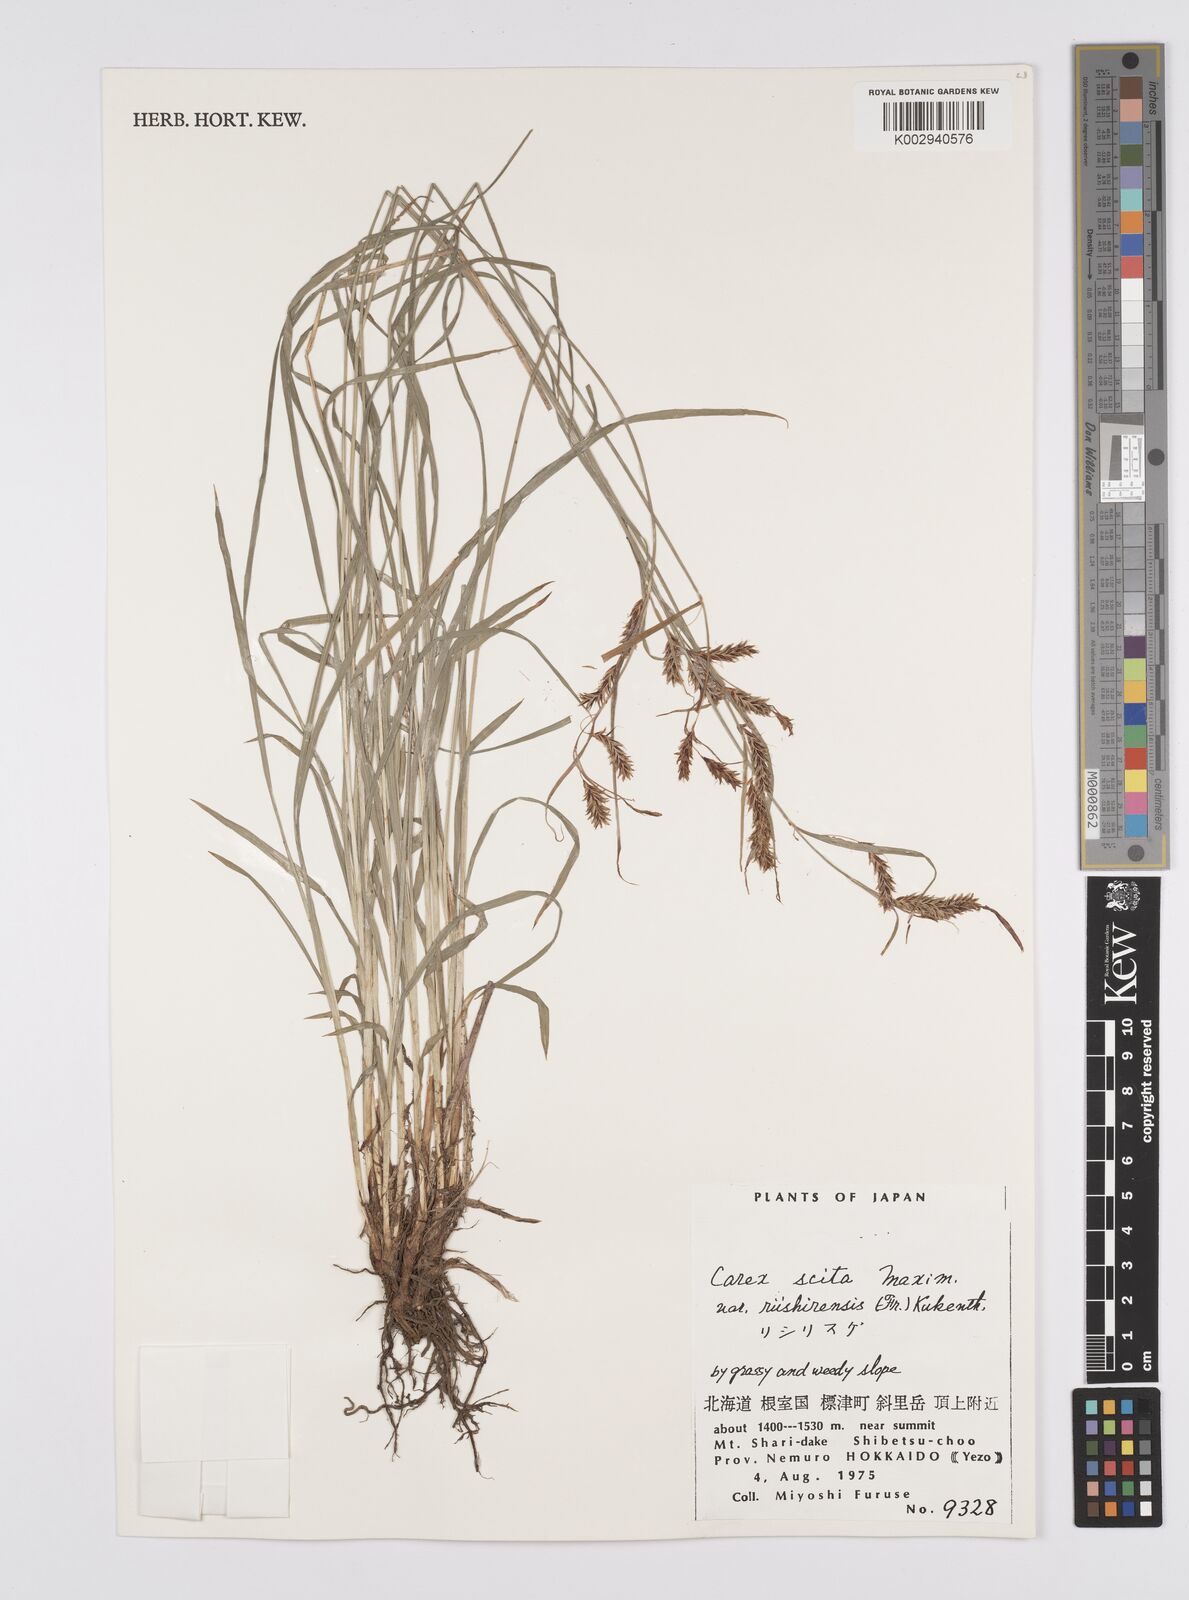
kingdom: Plantae
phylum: Tracheophyta
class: Liliopsida
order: Poales
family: Cyperaceae
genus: Carex
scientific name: Carex scita
